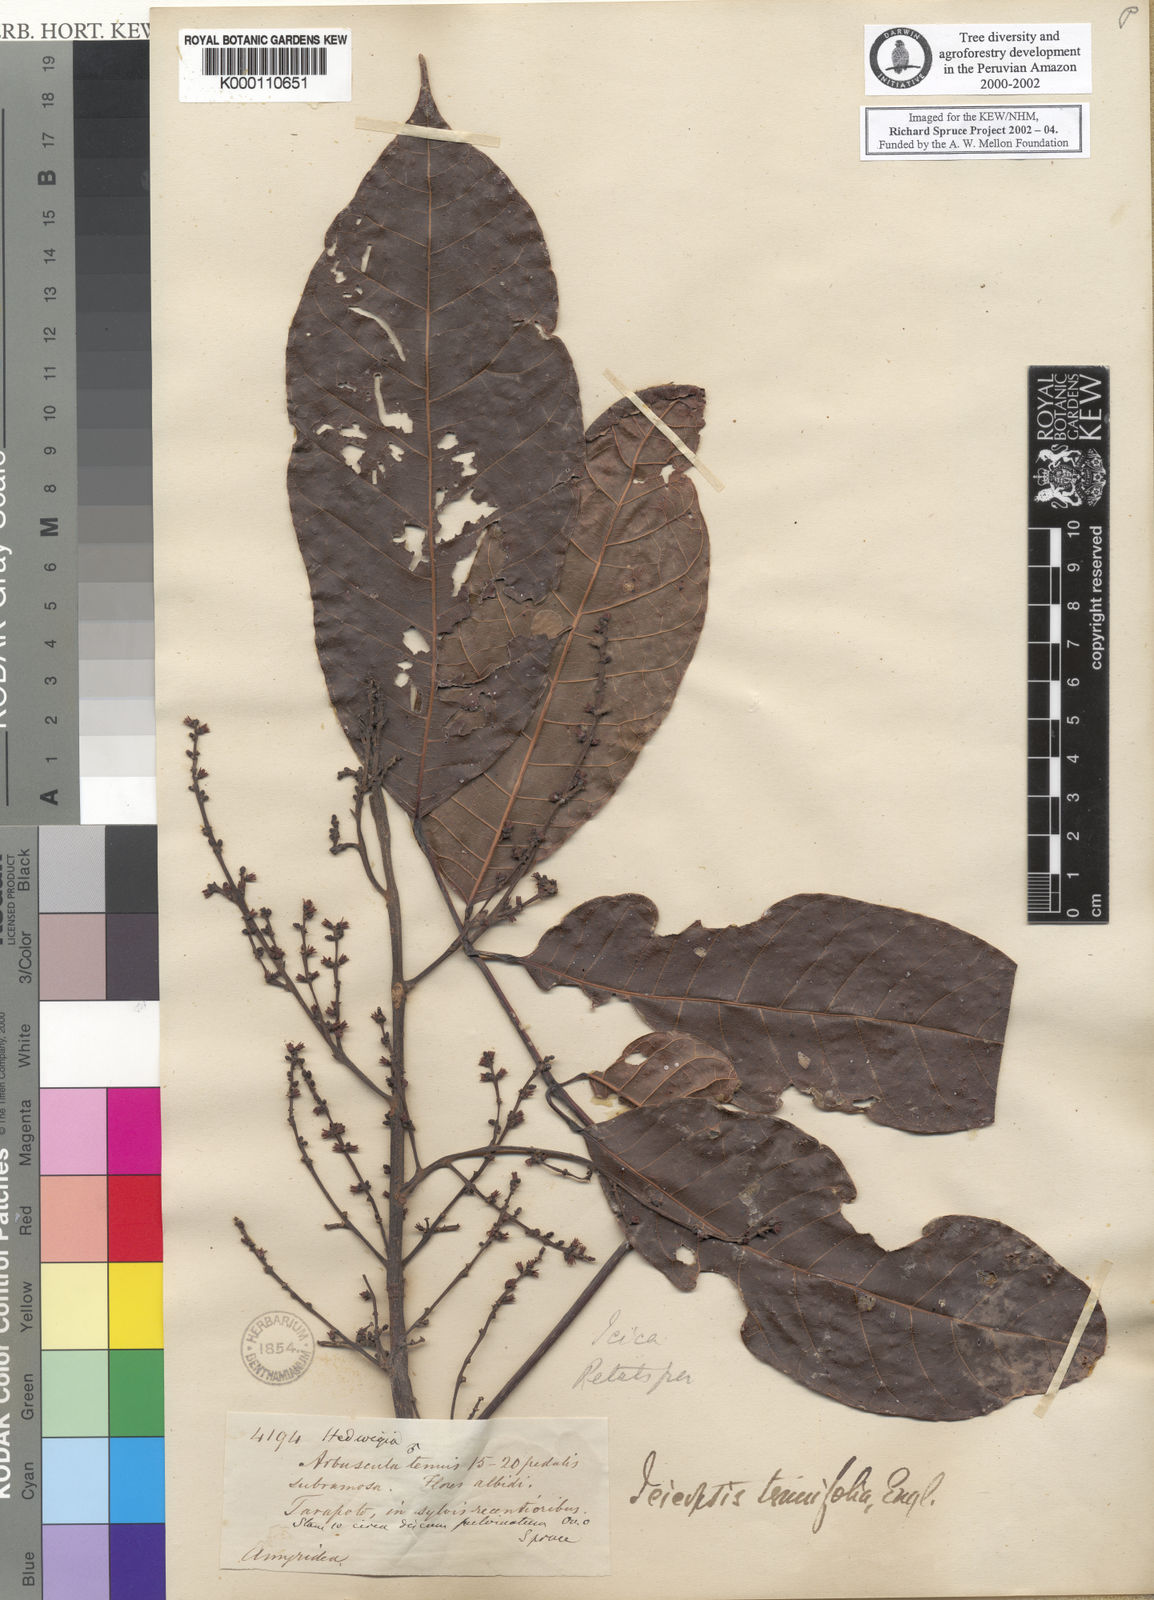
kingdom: Plantae
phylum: Tracheophyta
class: Magnoliopsida
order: Sapindales
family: Burseraceae
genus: Protium
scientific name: Protium tenuifolium
